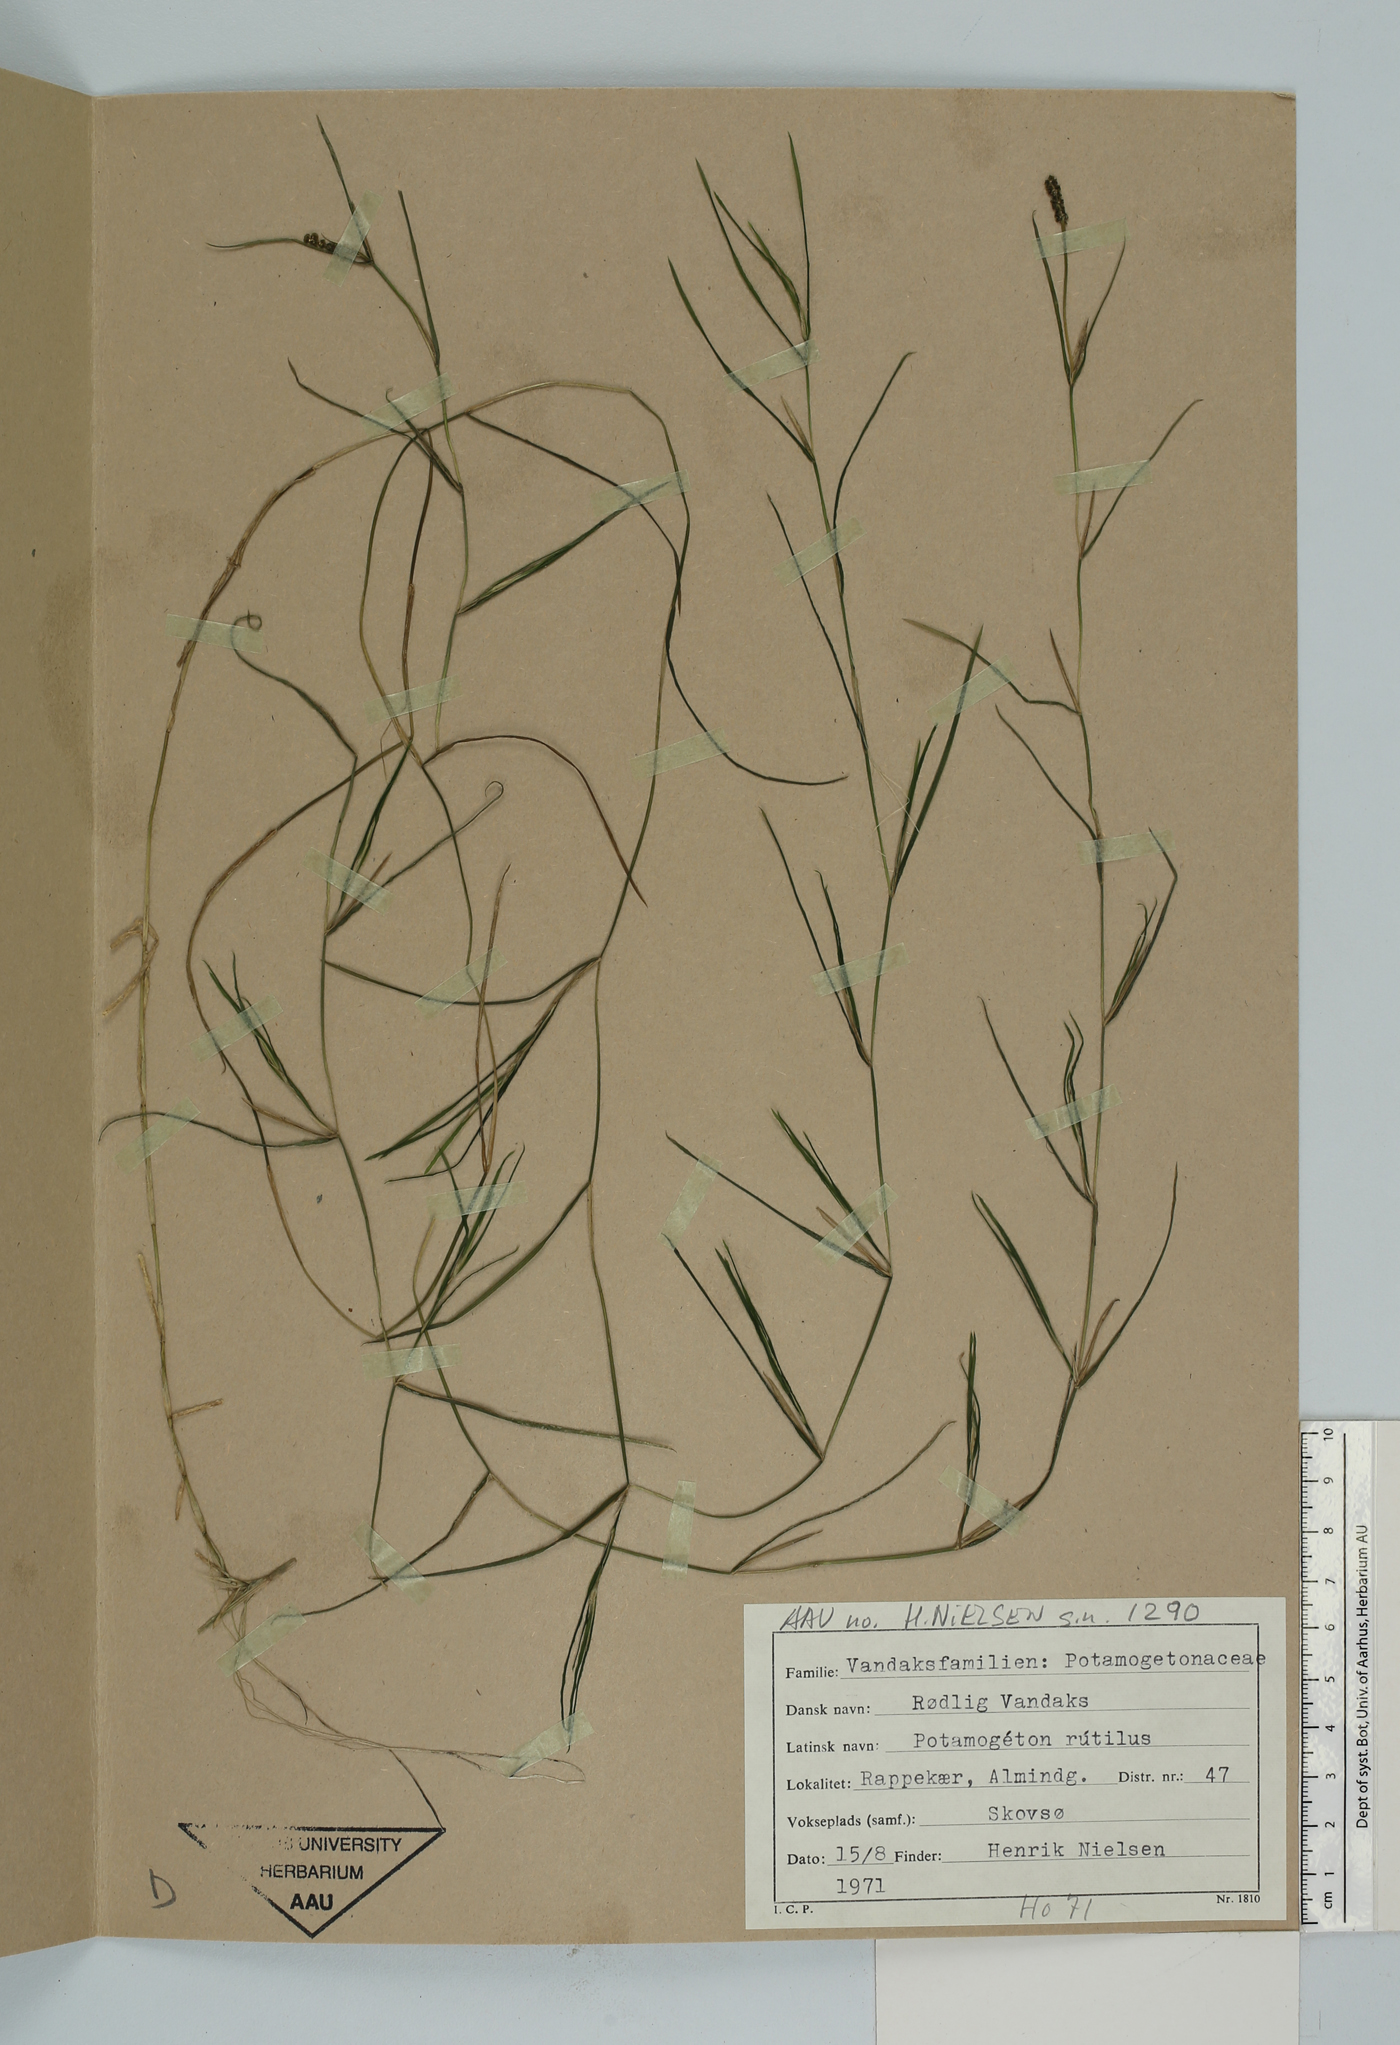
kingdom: Plantae
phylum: Tracheophyta
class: Liliopsida
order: Alismatales
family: Potamogetonaceae
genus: Potamogeton
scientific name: Potamogeton rutilus
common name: Shetland pondweed
